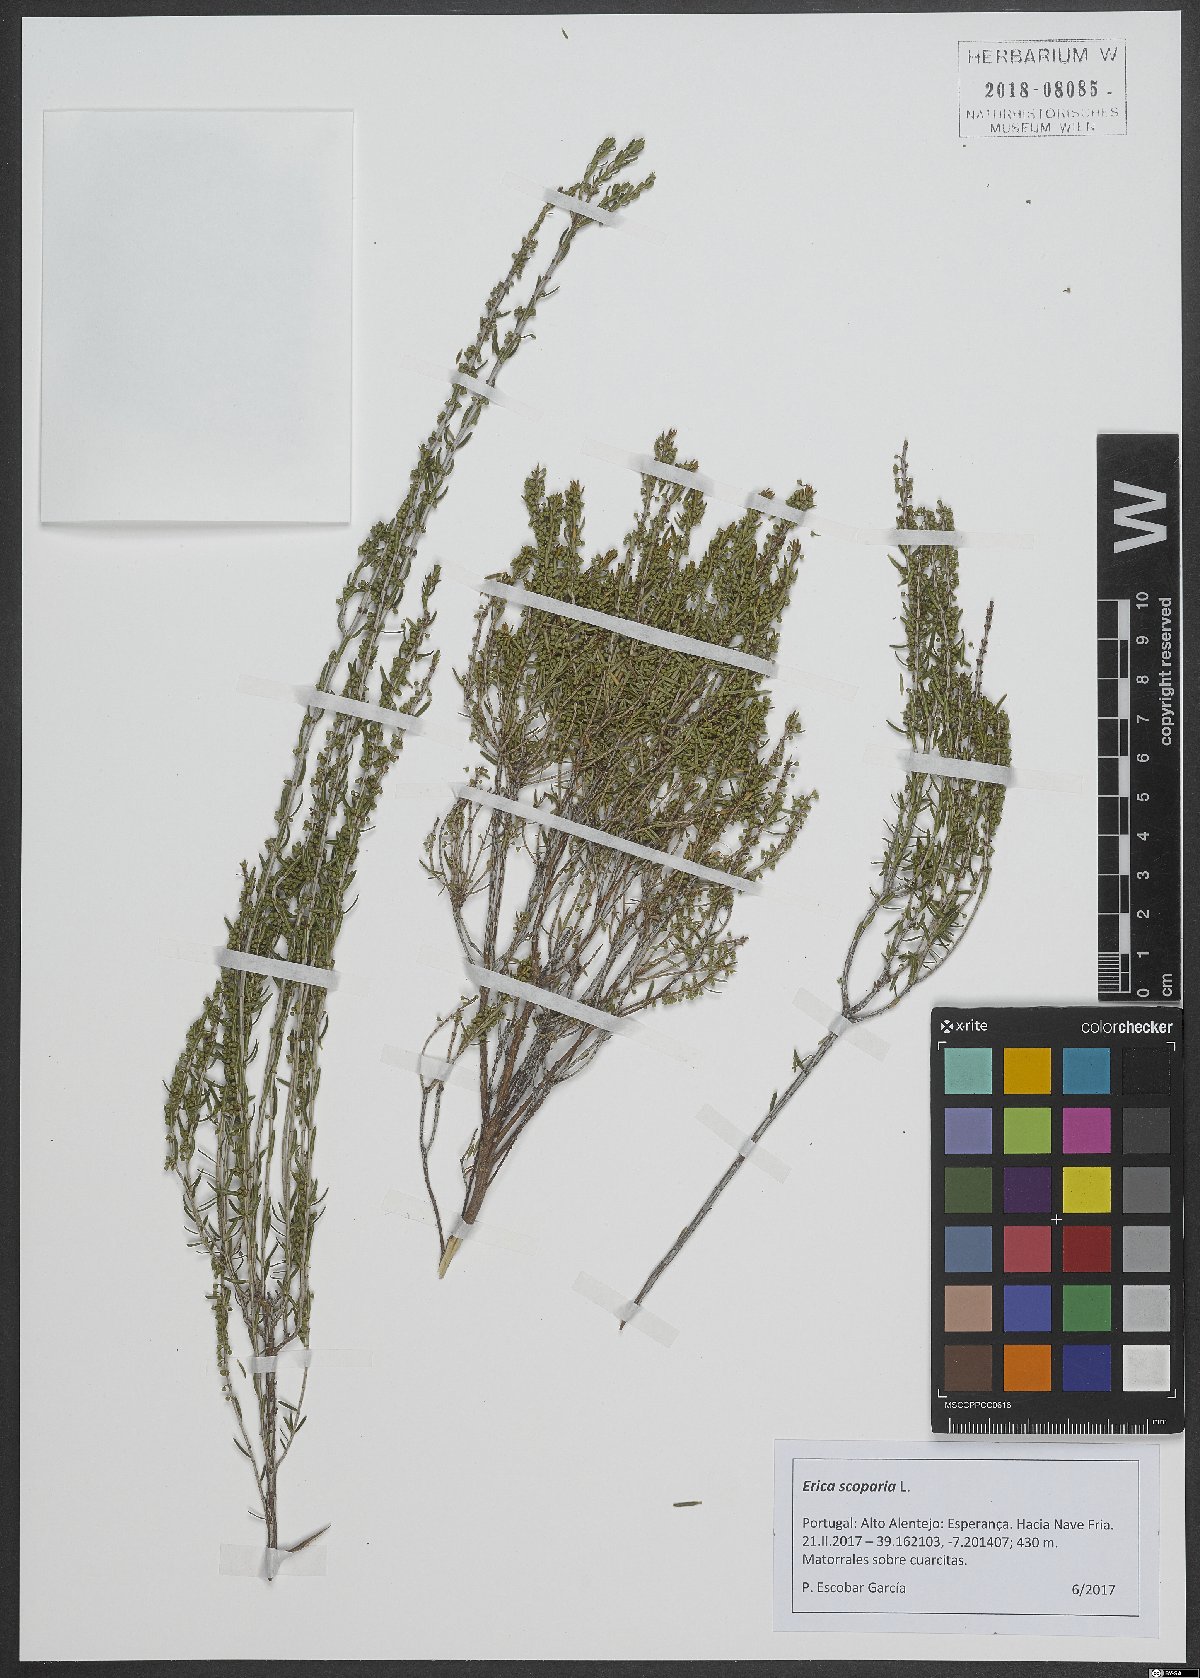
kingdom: Plantae
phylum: Tracheophyta
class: Magnoliopsida
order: Ericales
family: Ericaceae
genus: Erica
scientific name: Erica scoparia
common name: Green heather
